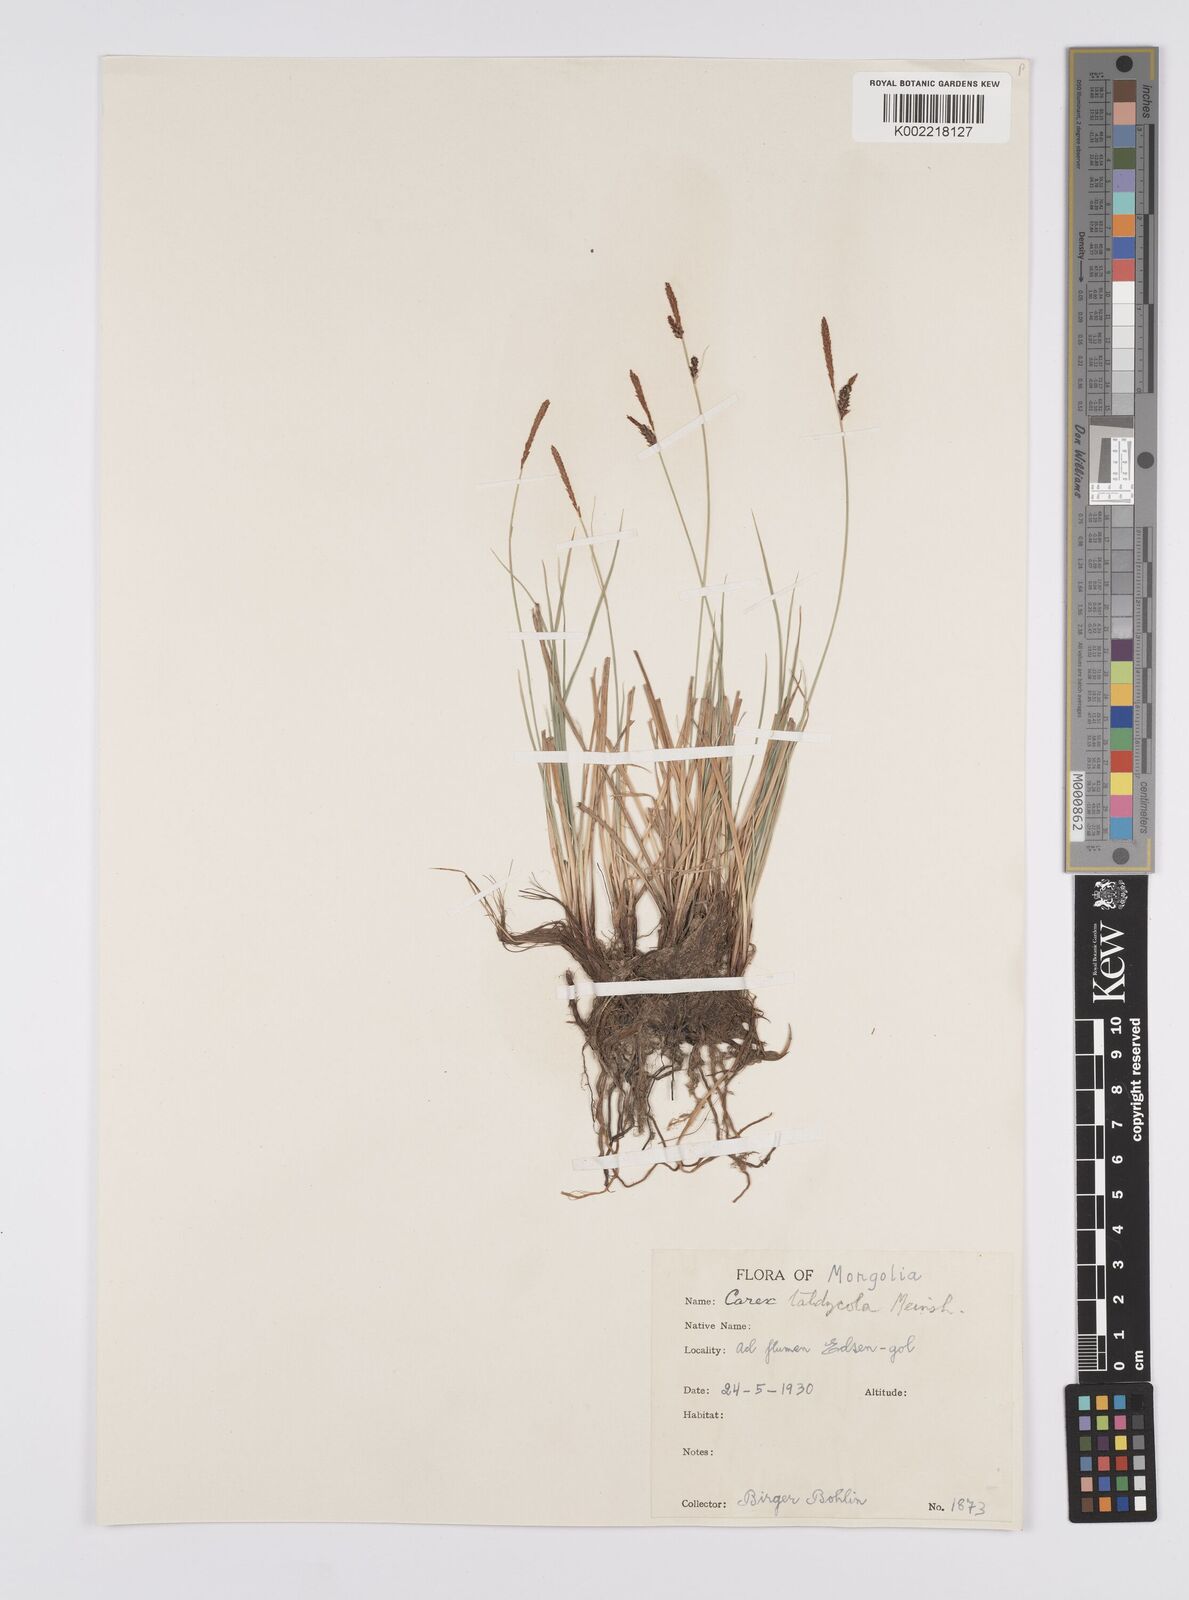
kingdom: Plantae
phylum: Tracheophyta
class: Liliopsida
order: Poales
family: Cyperaceae
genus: Carex
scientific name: Carex orbicularis
